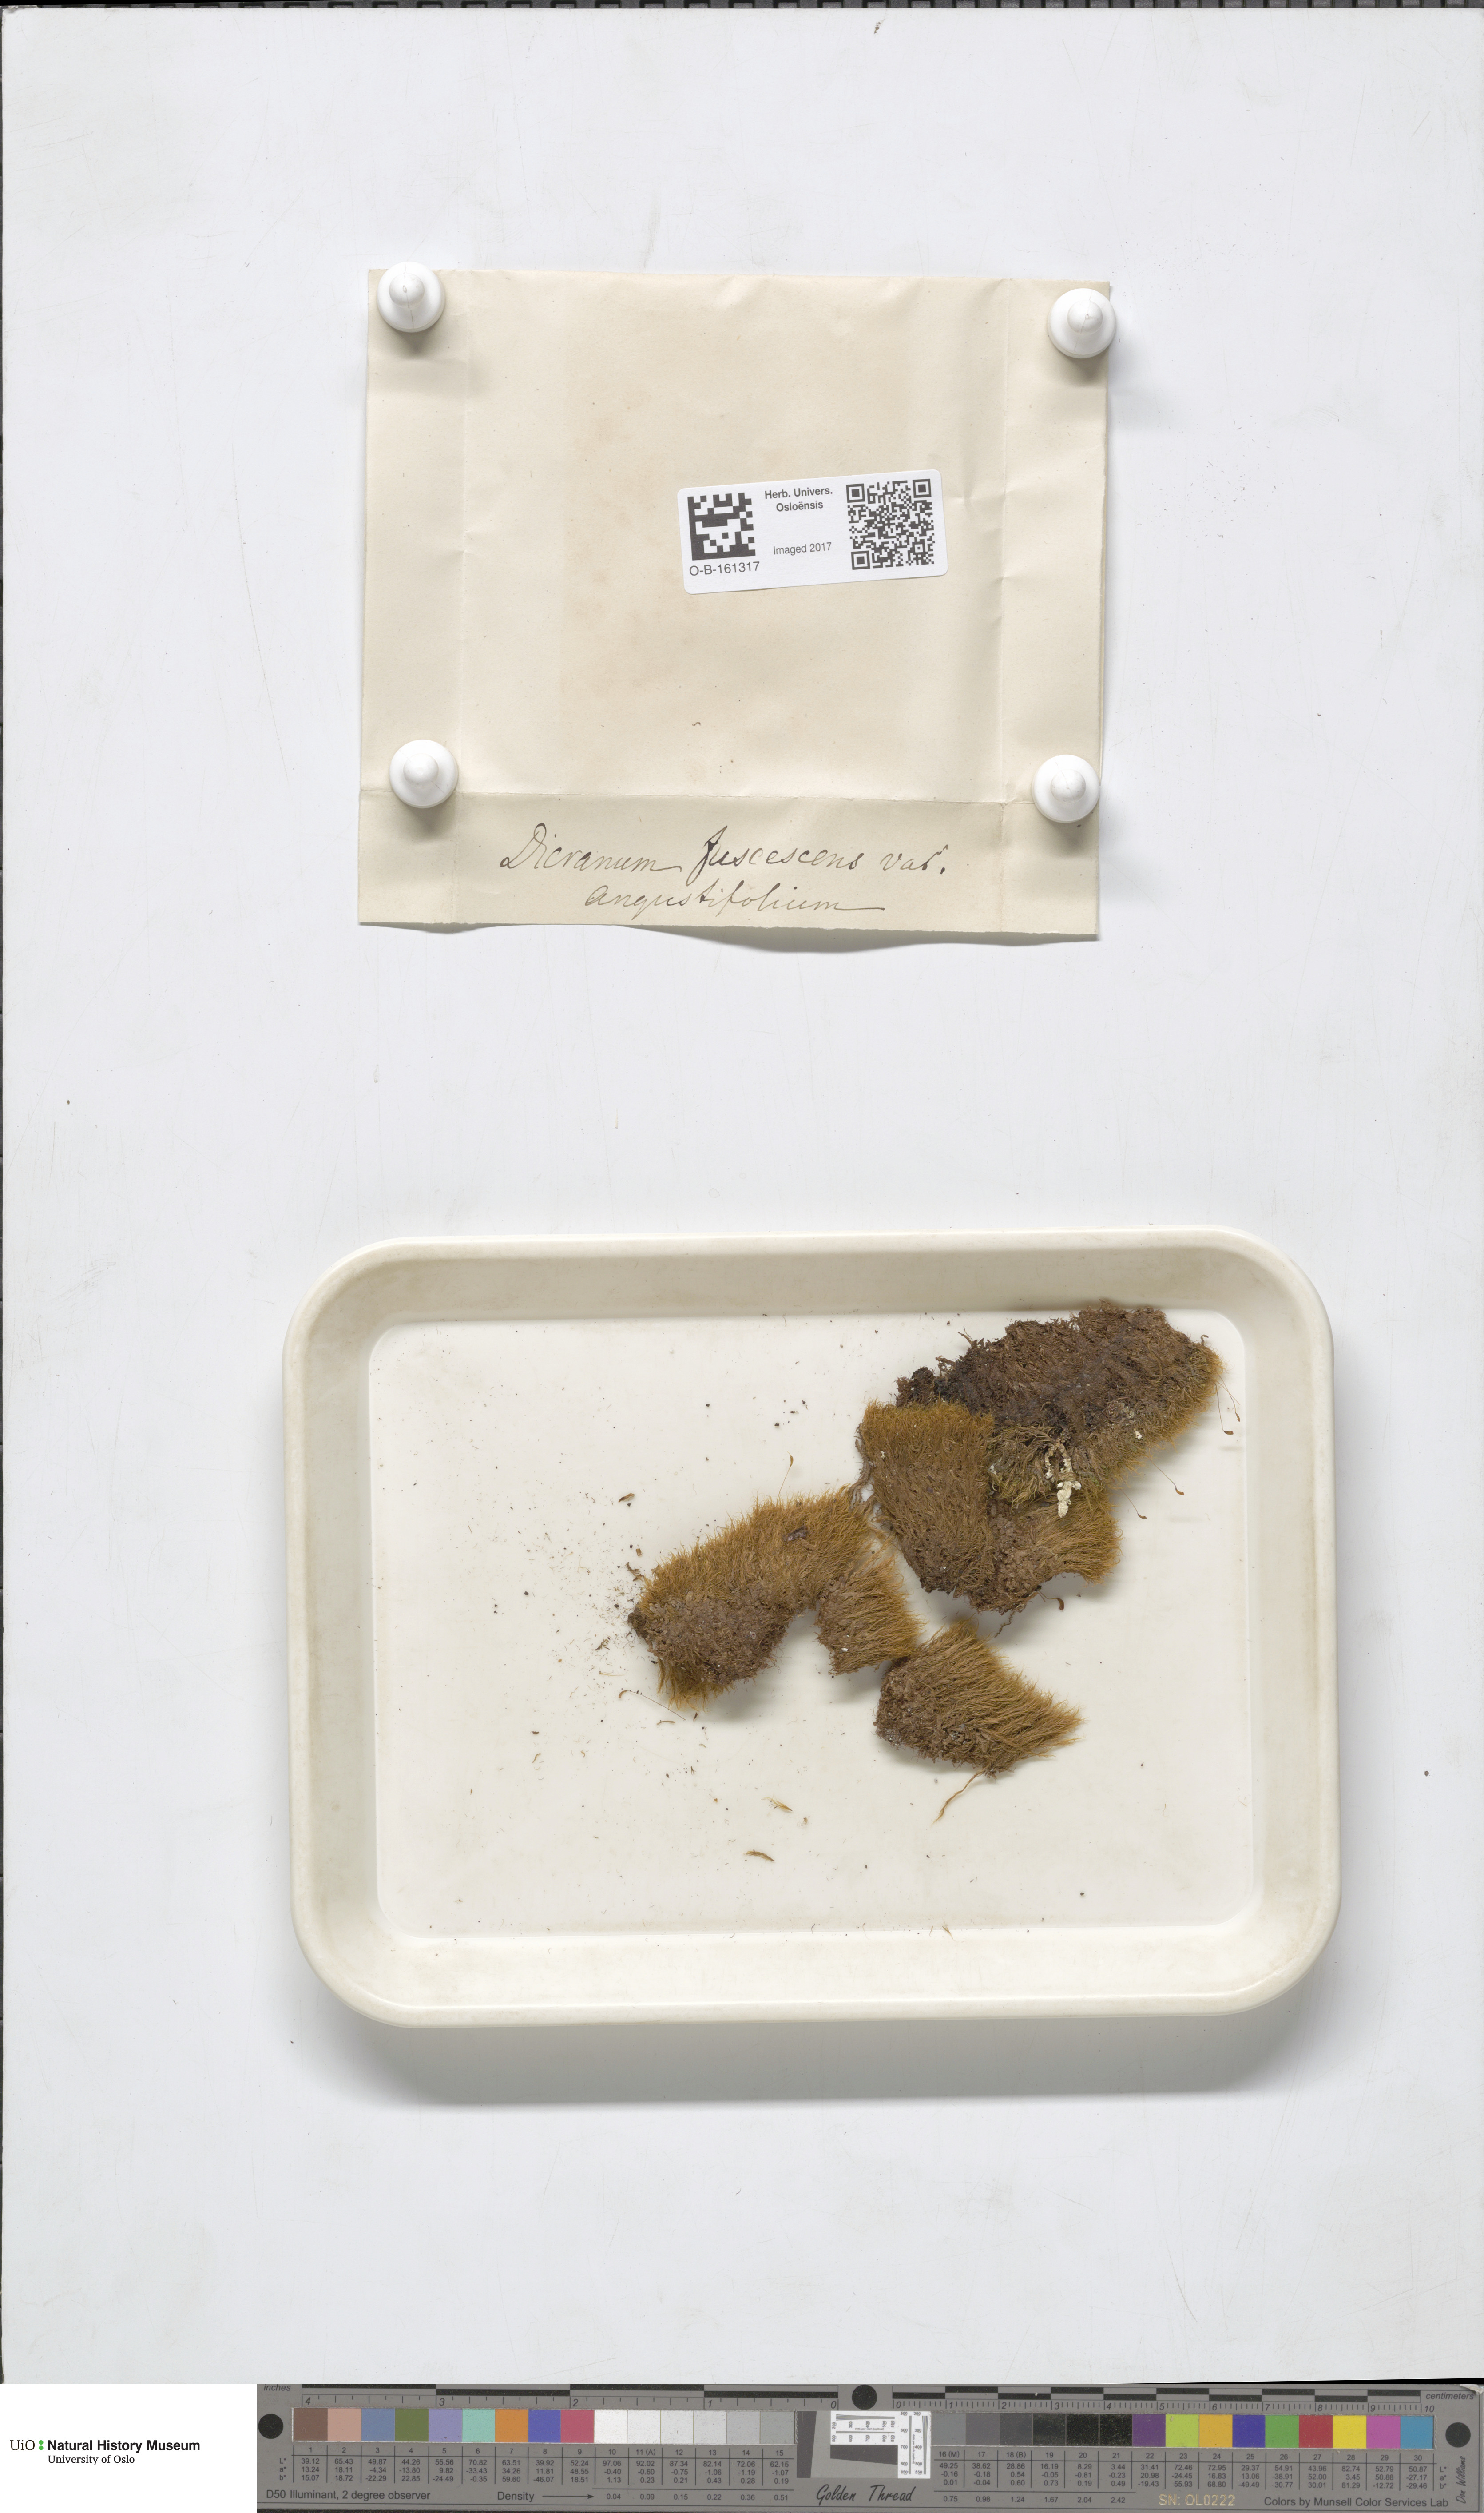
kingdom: Plantae
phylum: Bryophyta
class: Bryopsida
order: Dicranales
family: Dicranaceae
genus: Dicranum
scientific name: Dicranum fuscescens
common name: Curly heron's-bill moss
